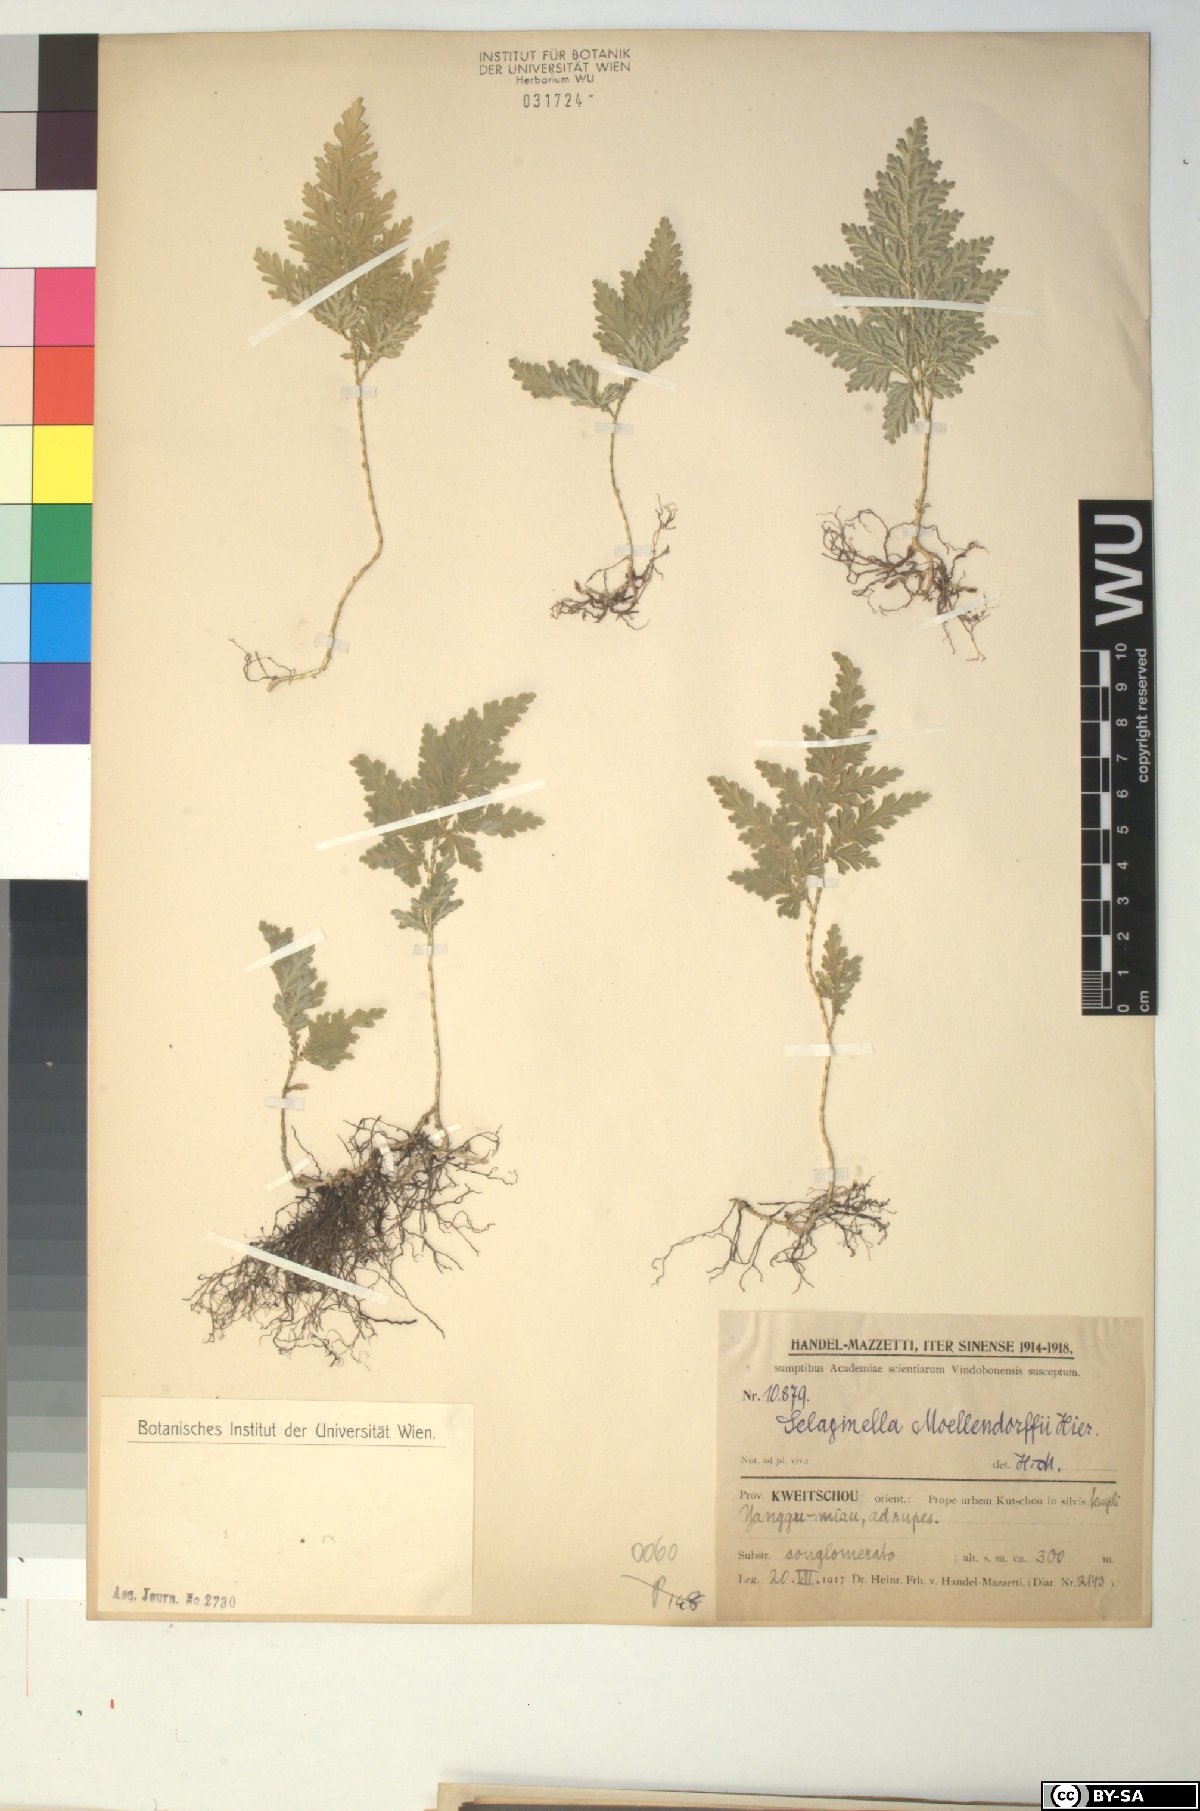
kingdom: Plantae
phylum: Tracheophyta
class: Lycopodiopsida
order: Selaginellales
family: Selaginellaceae
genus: Selaginella
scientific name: Selaginella moellendorffii
